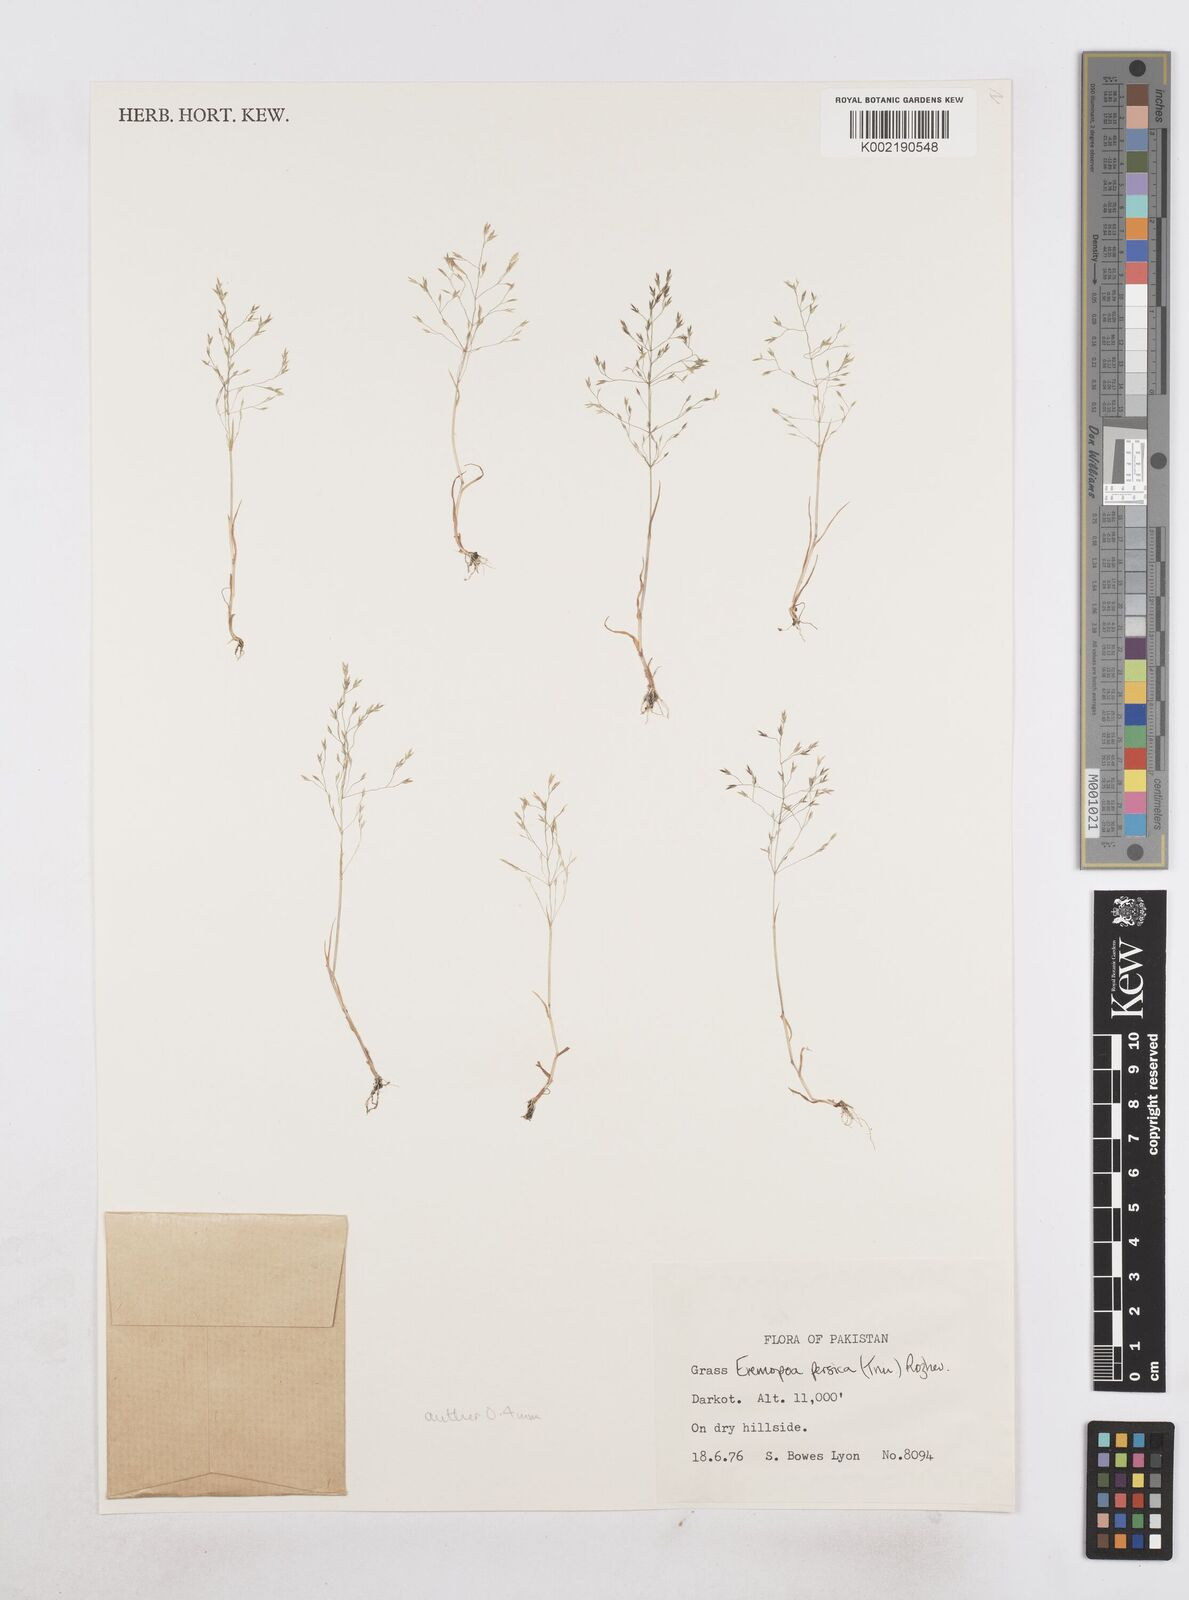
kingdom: Plantae
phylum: Tracheophyta
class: Liliopsida
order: Poales
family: Poaceae
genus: Poa
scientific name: Poa diaphora
